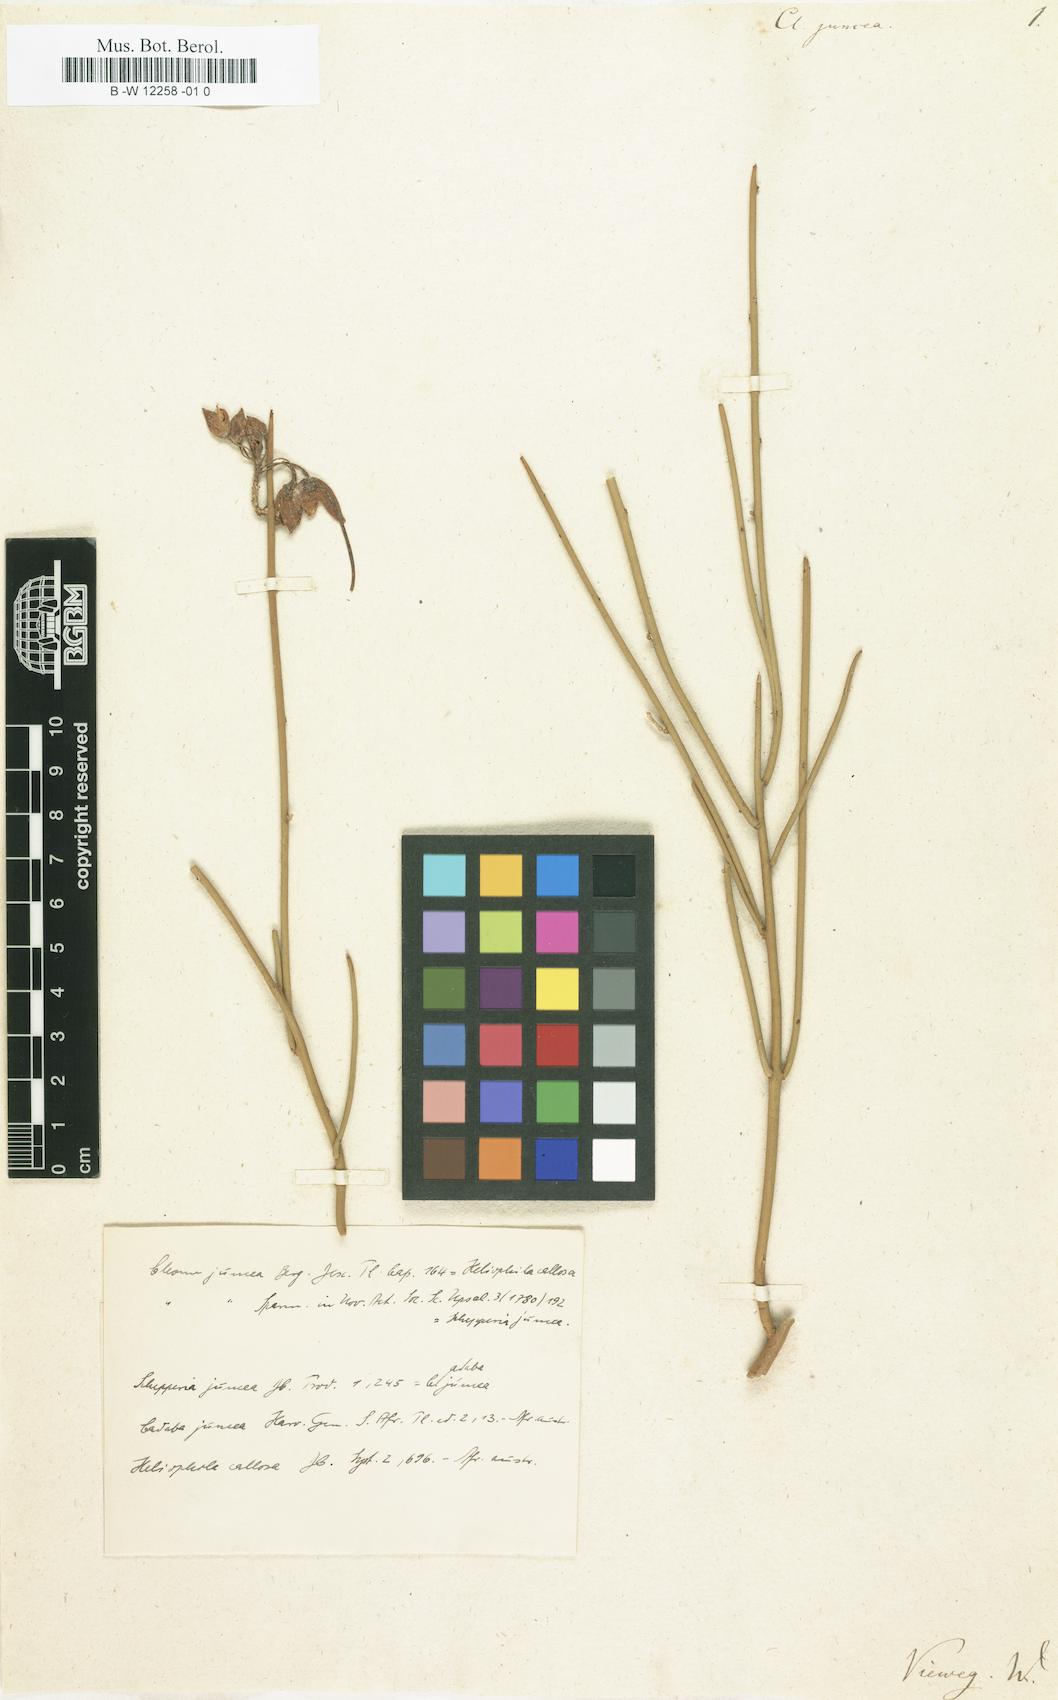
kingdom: Plantae
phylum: Tracheophyta
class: Magnoliopsida
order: Brassicales
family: Capparaceae
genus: Cadaba
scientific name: Cadaba aphylla
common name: Black storm
